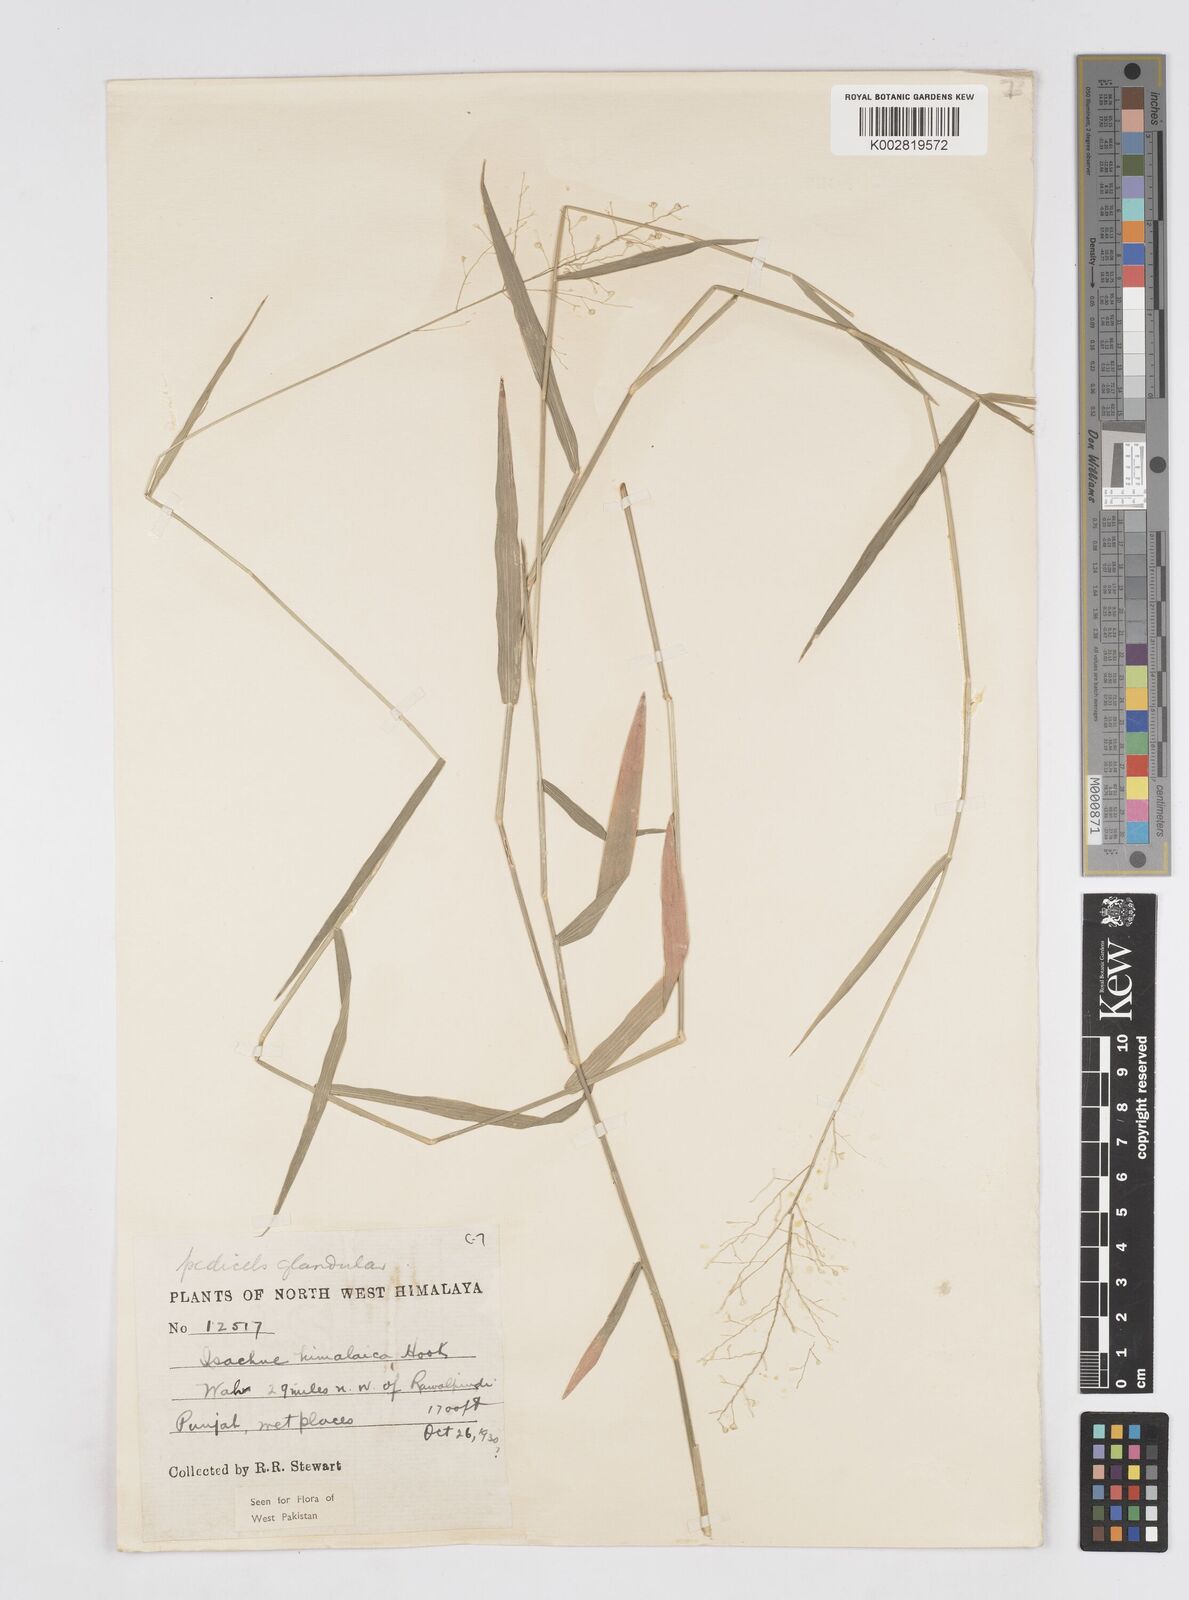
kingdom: Plantae
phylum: Tracheophyta
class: Liliopsida
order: Poales
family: Poaceae
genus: Isachne
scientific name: Isachne himalaica
